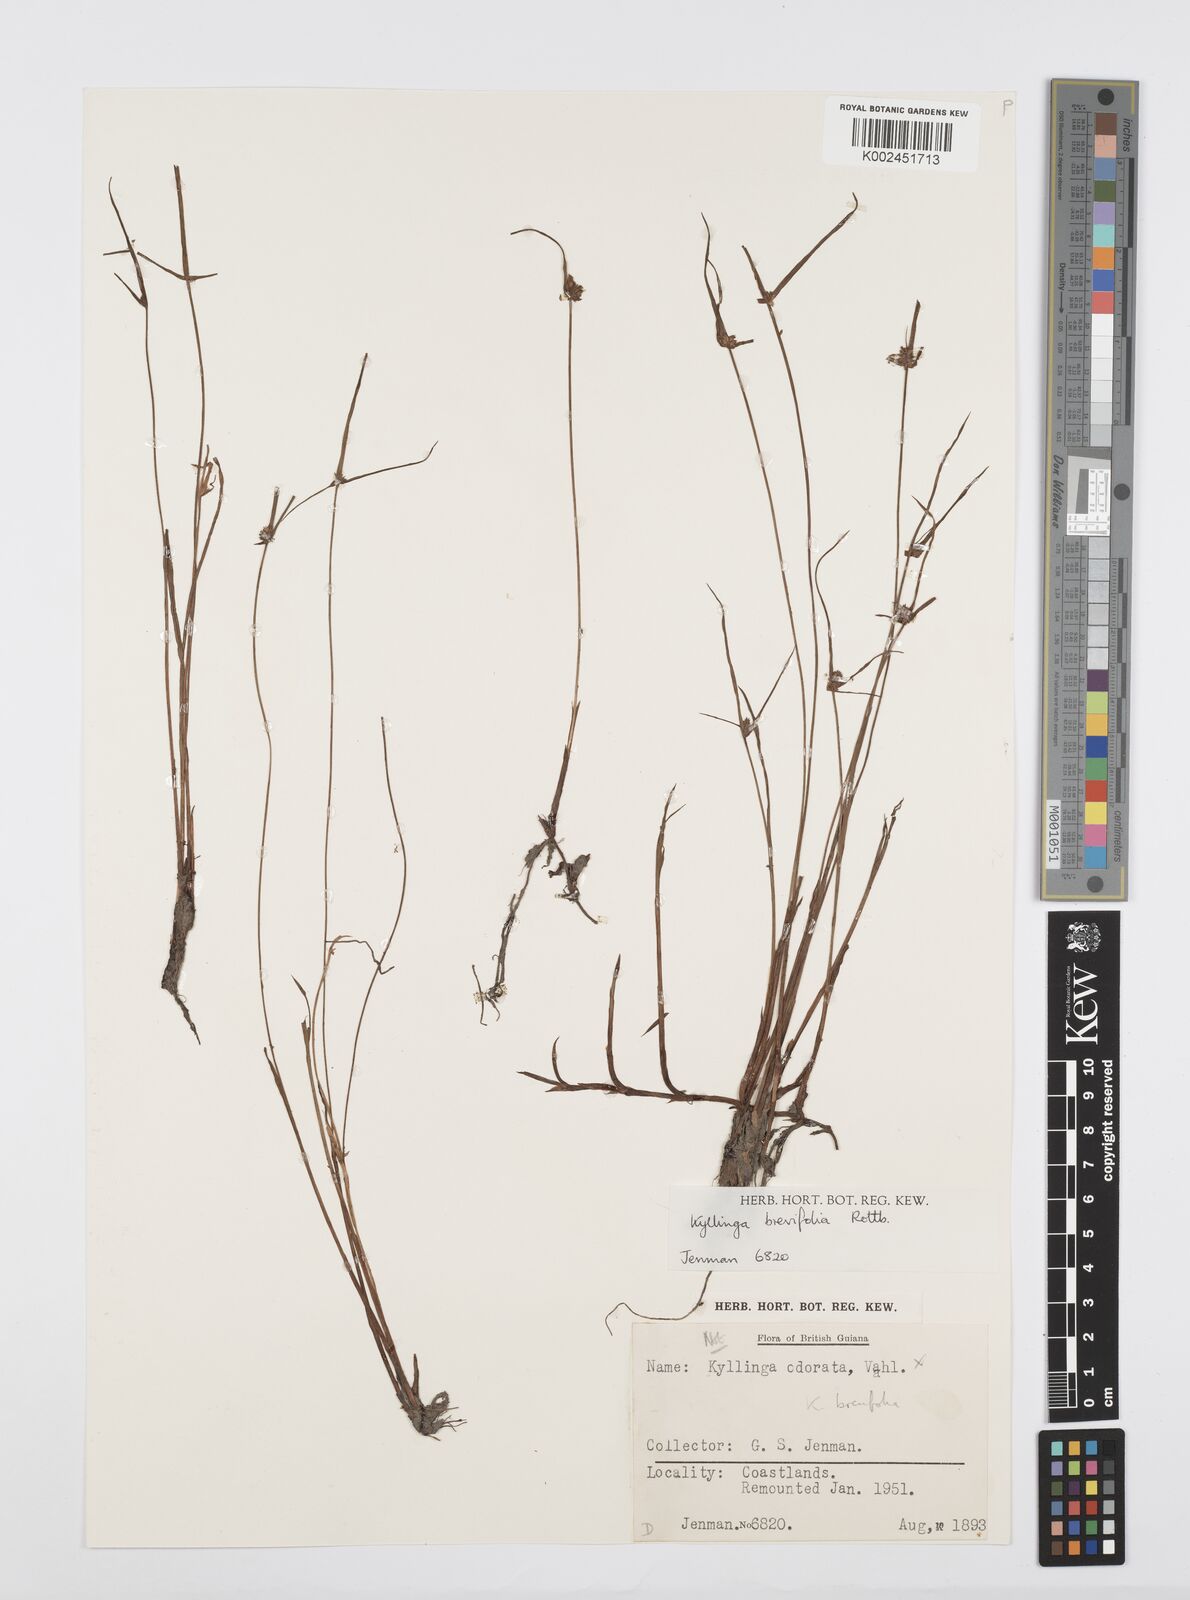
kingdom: Plantae
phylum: Tracheophyta
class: Liliopsida
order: Poales
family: Cyperaceae
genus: Cyperus
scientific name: Cyperus brevifolius
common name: Globe kyllinga
